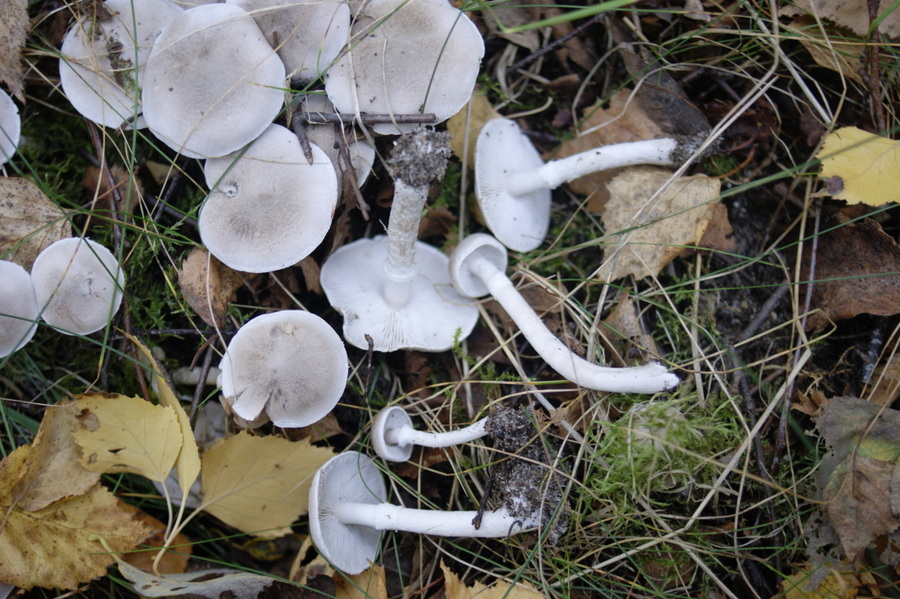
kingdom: Fungi
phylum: Basidiomycota
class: Agaricomycetes
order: Agaricales
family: Tricholomataceae
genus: Tricholoma
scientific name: Tricholoma cingulatum
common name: ring-ridderhat
